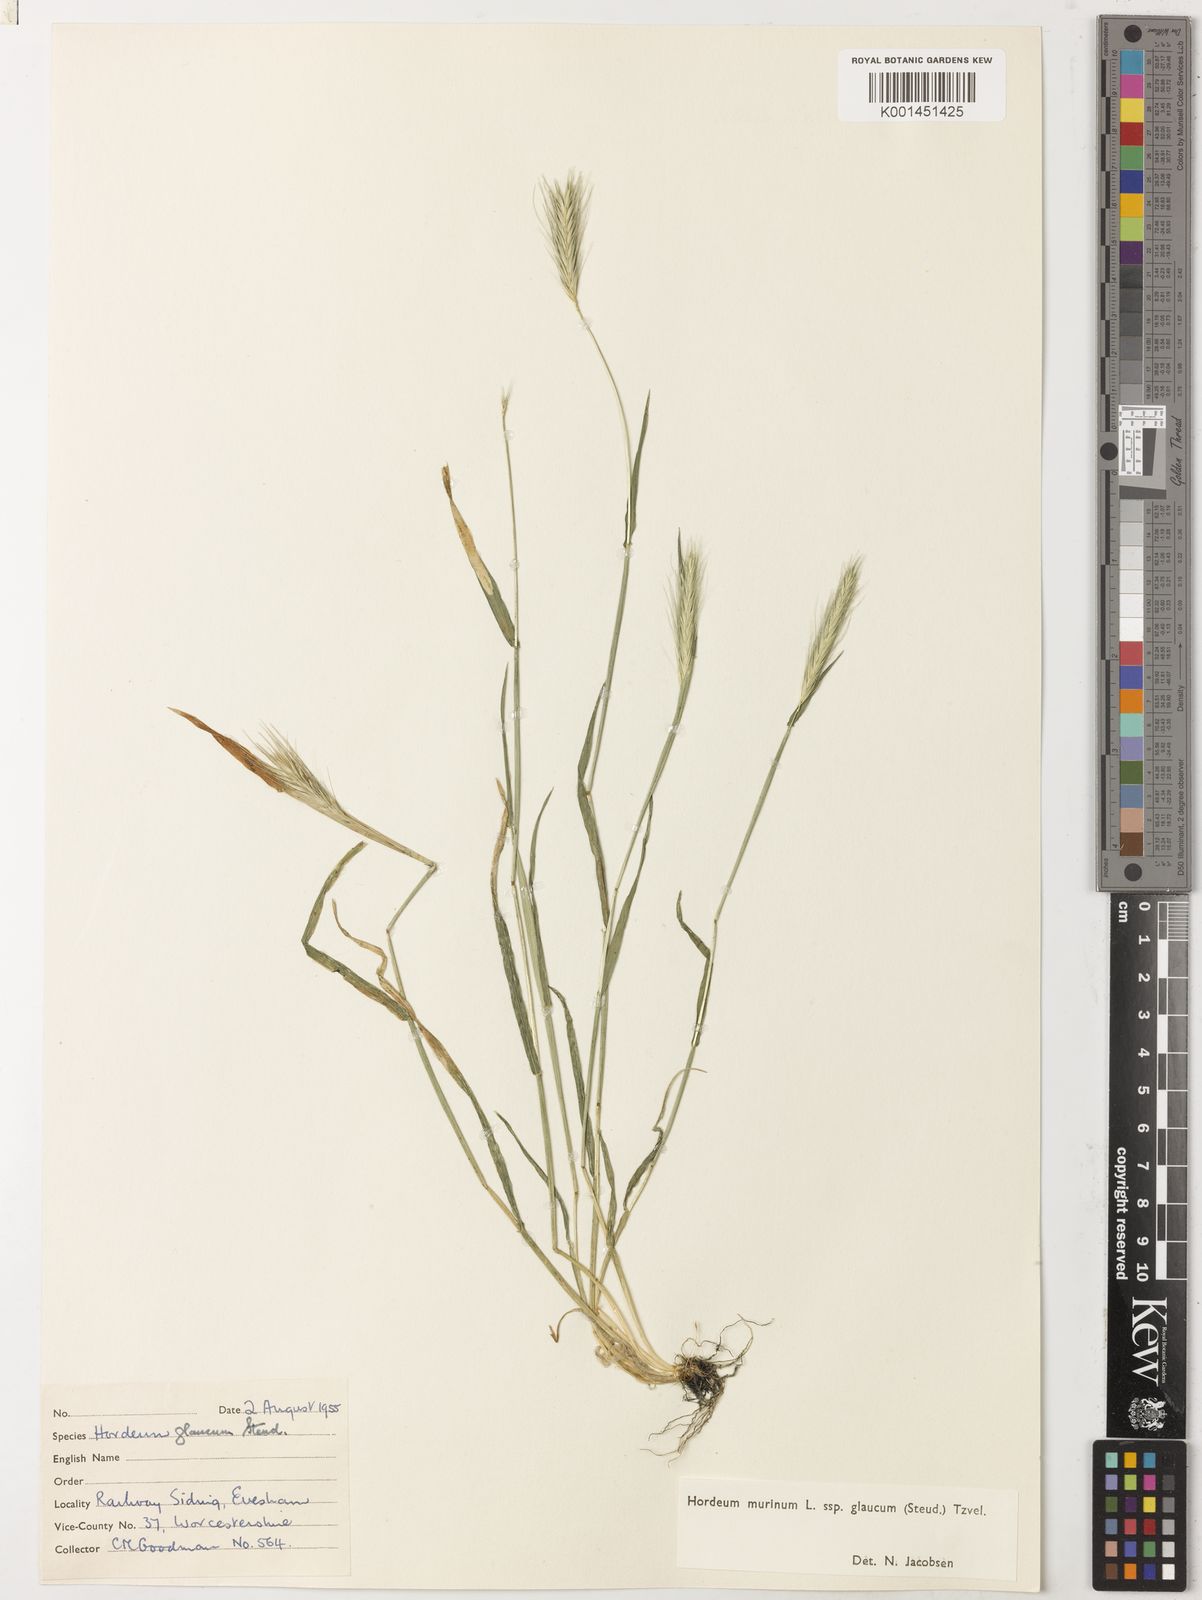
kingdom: Plantae
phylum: Tracheophyta
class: Liliopsida
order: Poales
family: Poaceae
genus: Hordeum
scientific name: Hordeum murinum
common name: Wall barley
